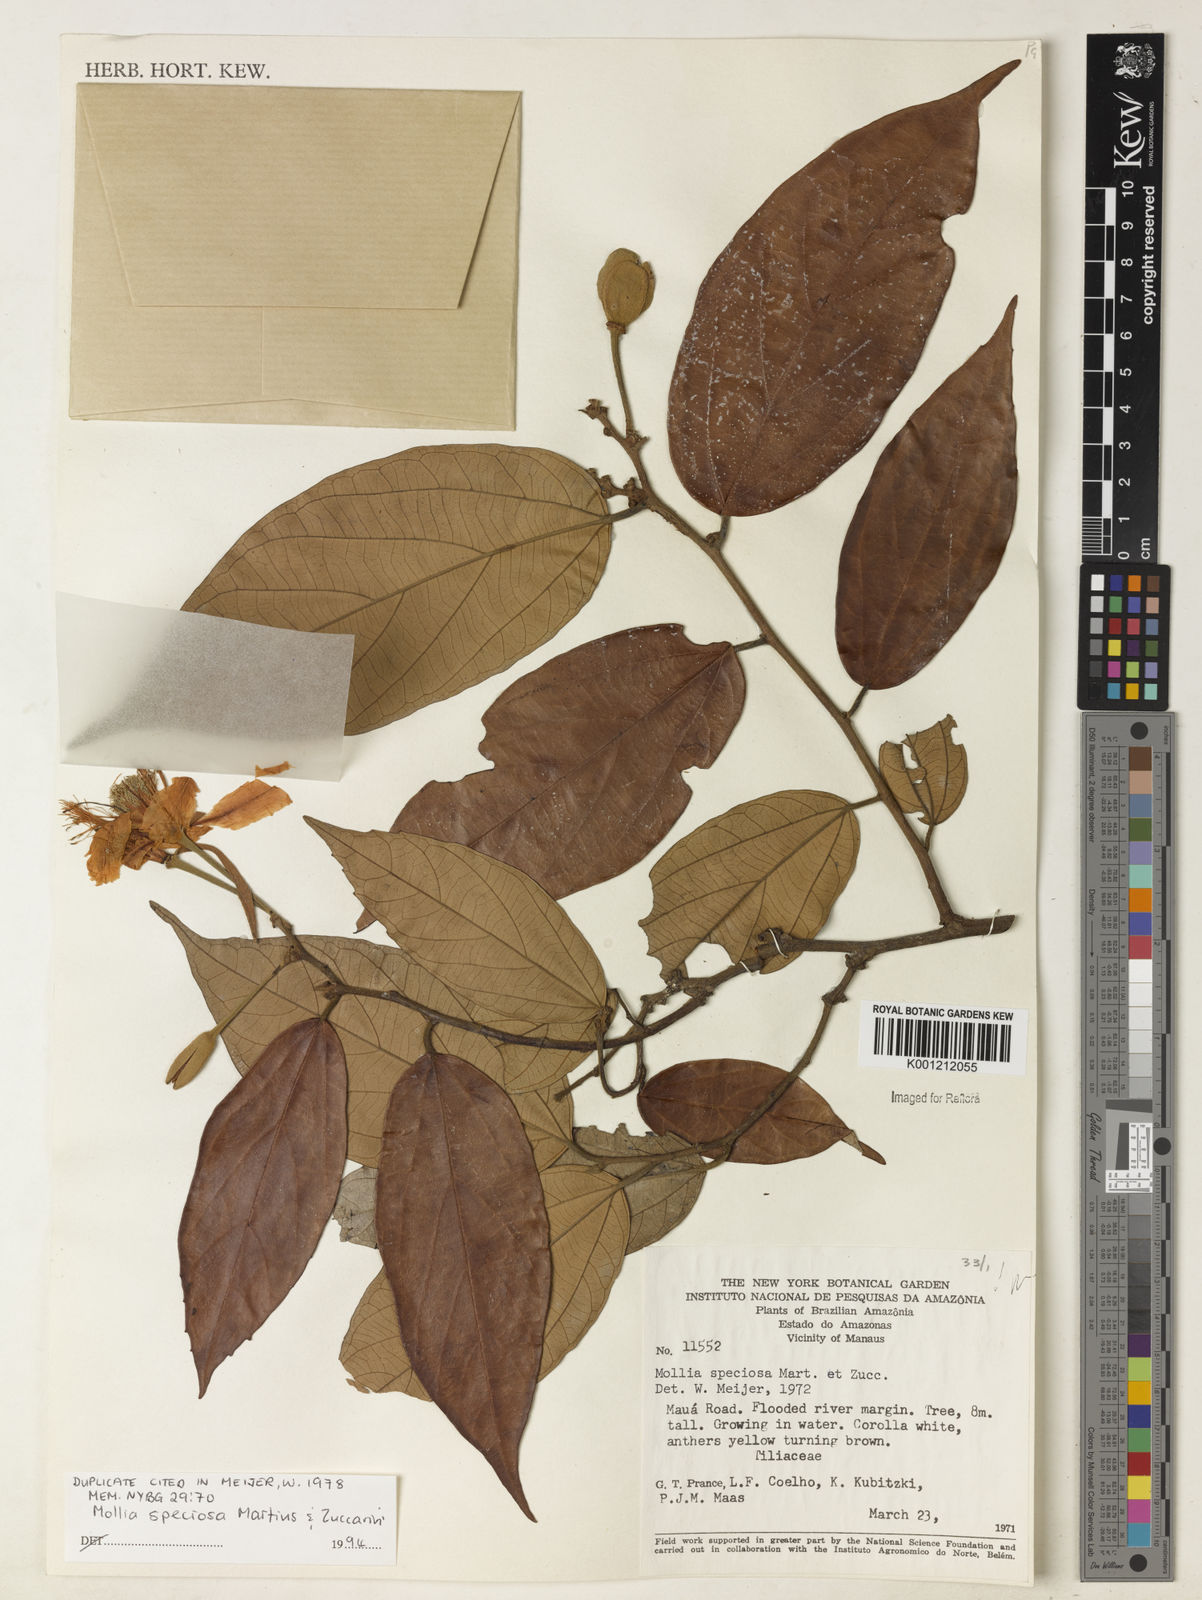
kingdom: Plantae
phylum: Tracheophyta
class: Magnoliopsida
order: Malvales
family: Malvaceae
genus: Mollia
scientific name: Mollia speciosa
